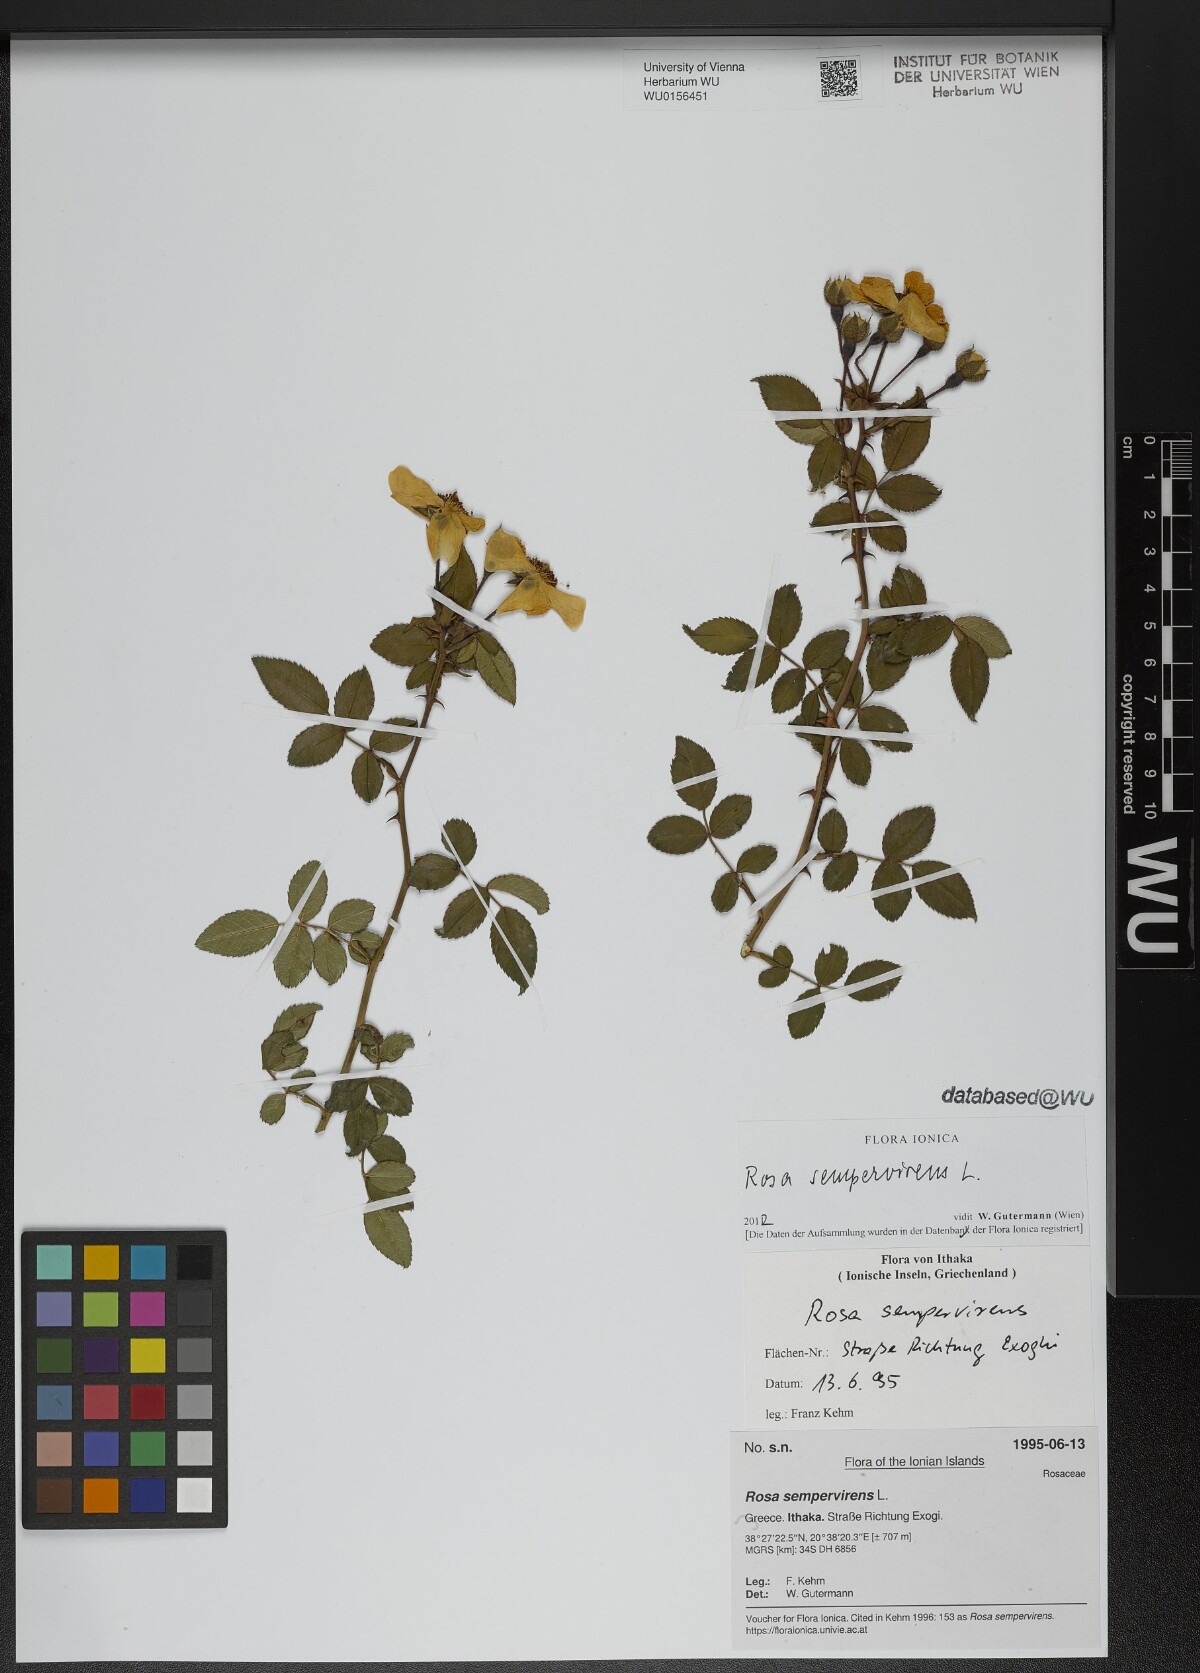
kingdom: Plantae
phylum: Tracheophyta
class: Magnoliopsida
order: Rosales
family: Rosaceae
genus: Rosa
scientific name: Rosa sempervirens
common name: Evergreen rose
